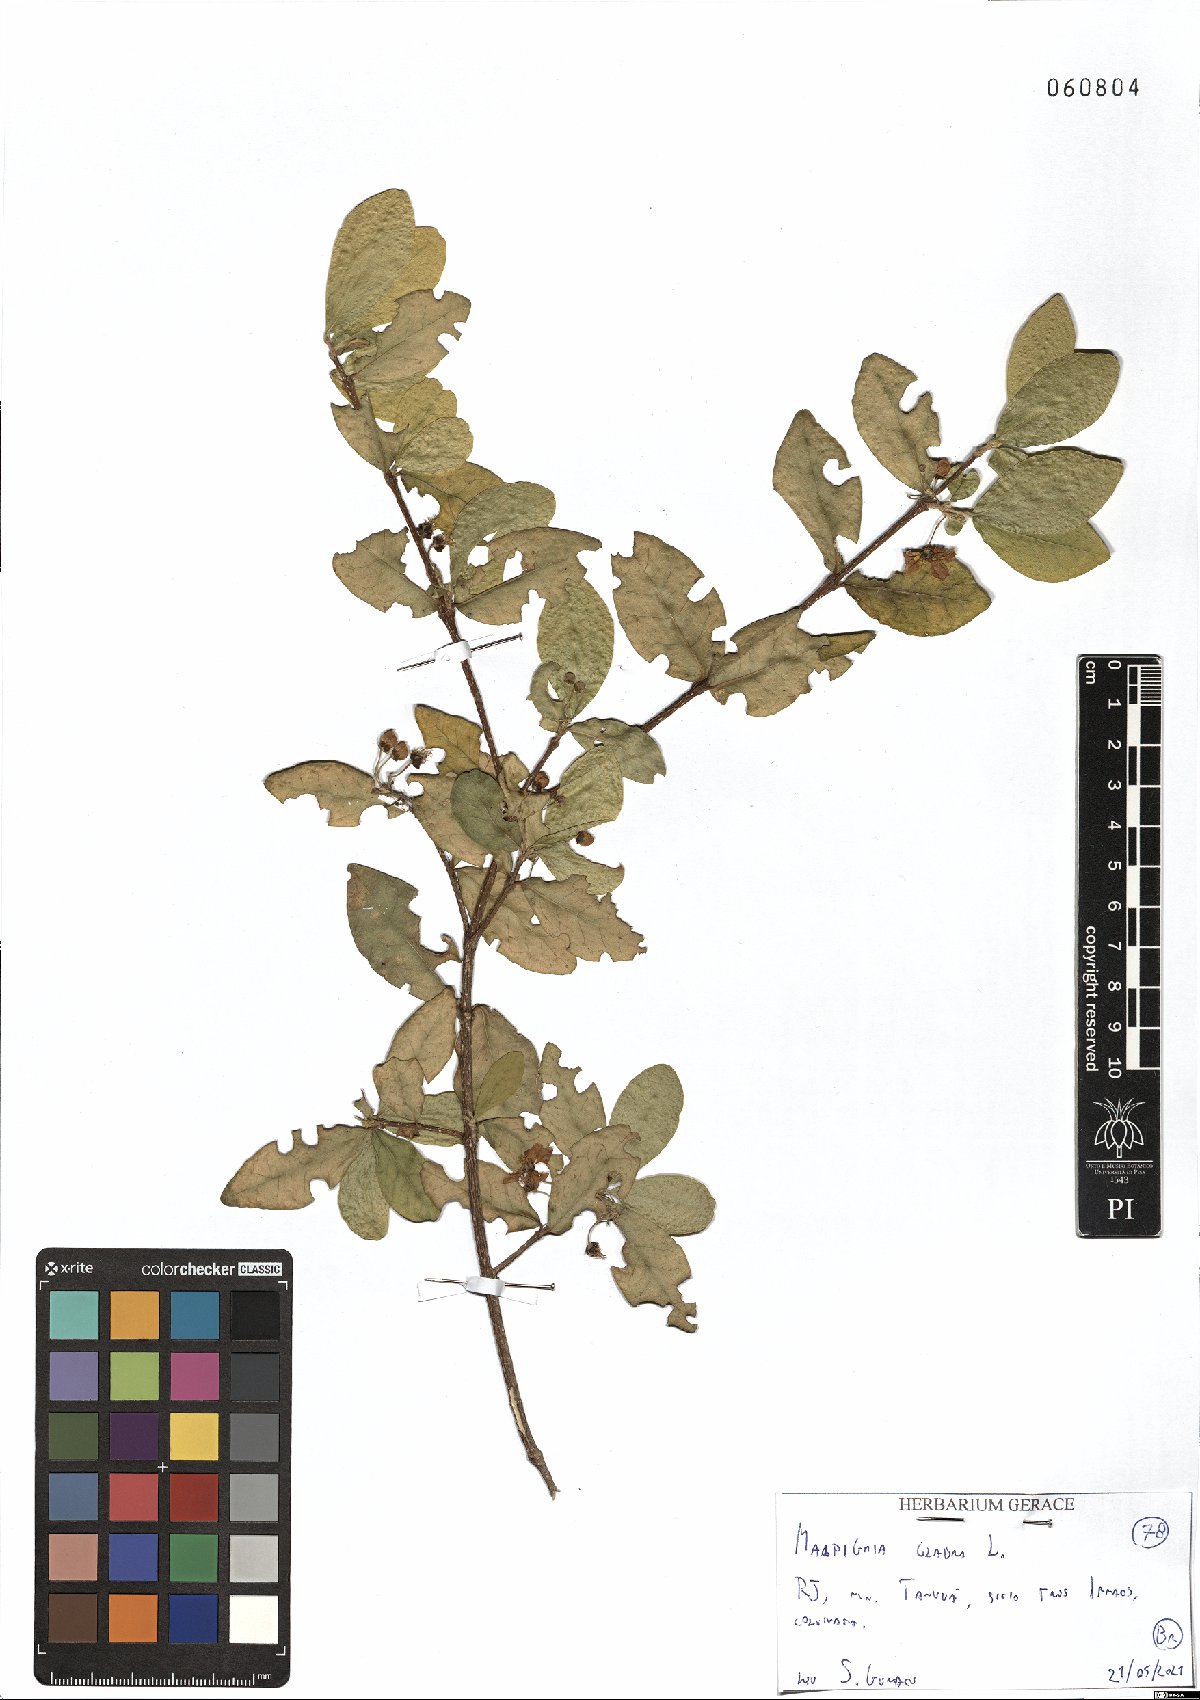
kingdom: Plantae
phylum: Tracheophyta
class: Magnoliopsida
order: Malpighiales
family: Malpighiaceae
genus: Malpighia
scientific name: Malpighia glabra
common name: Barbados cherry
